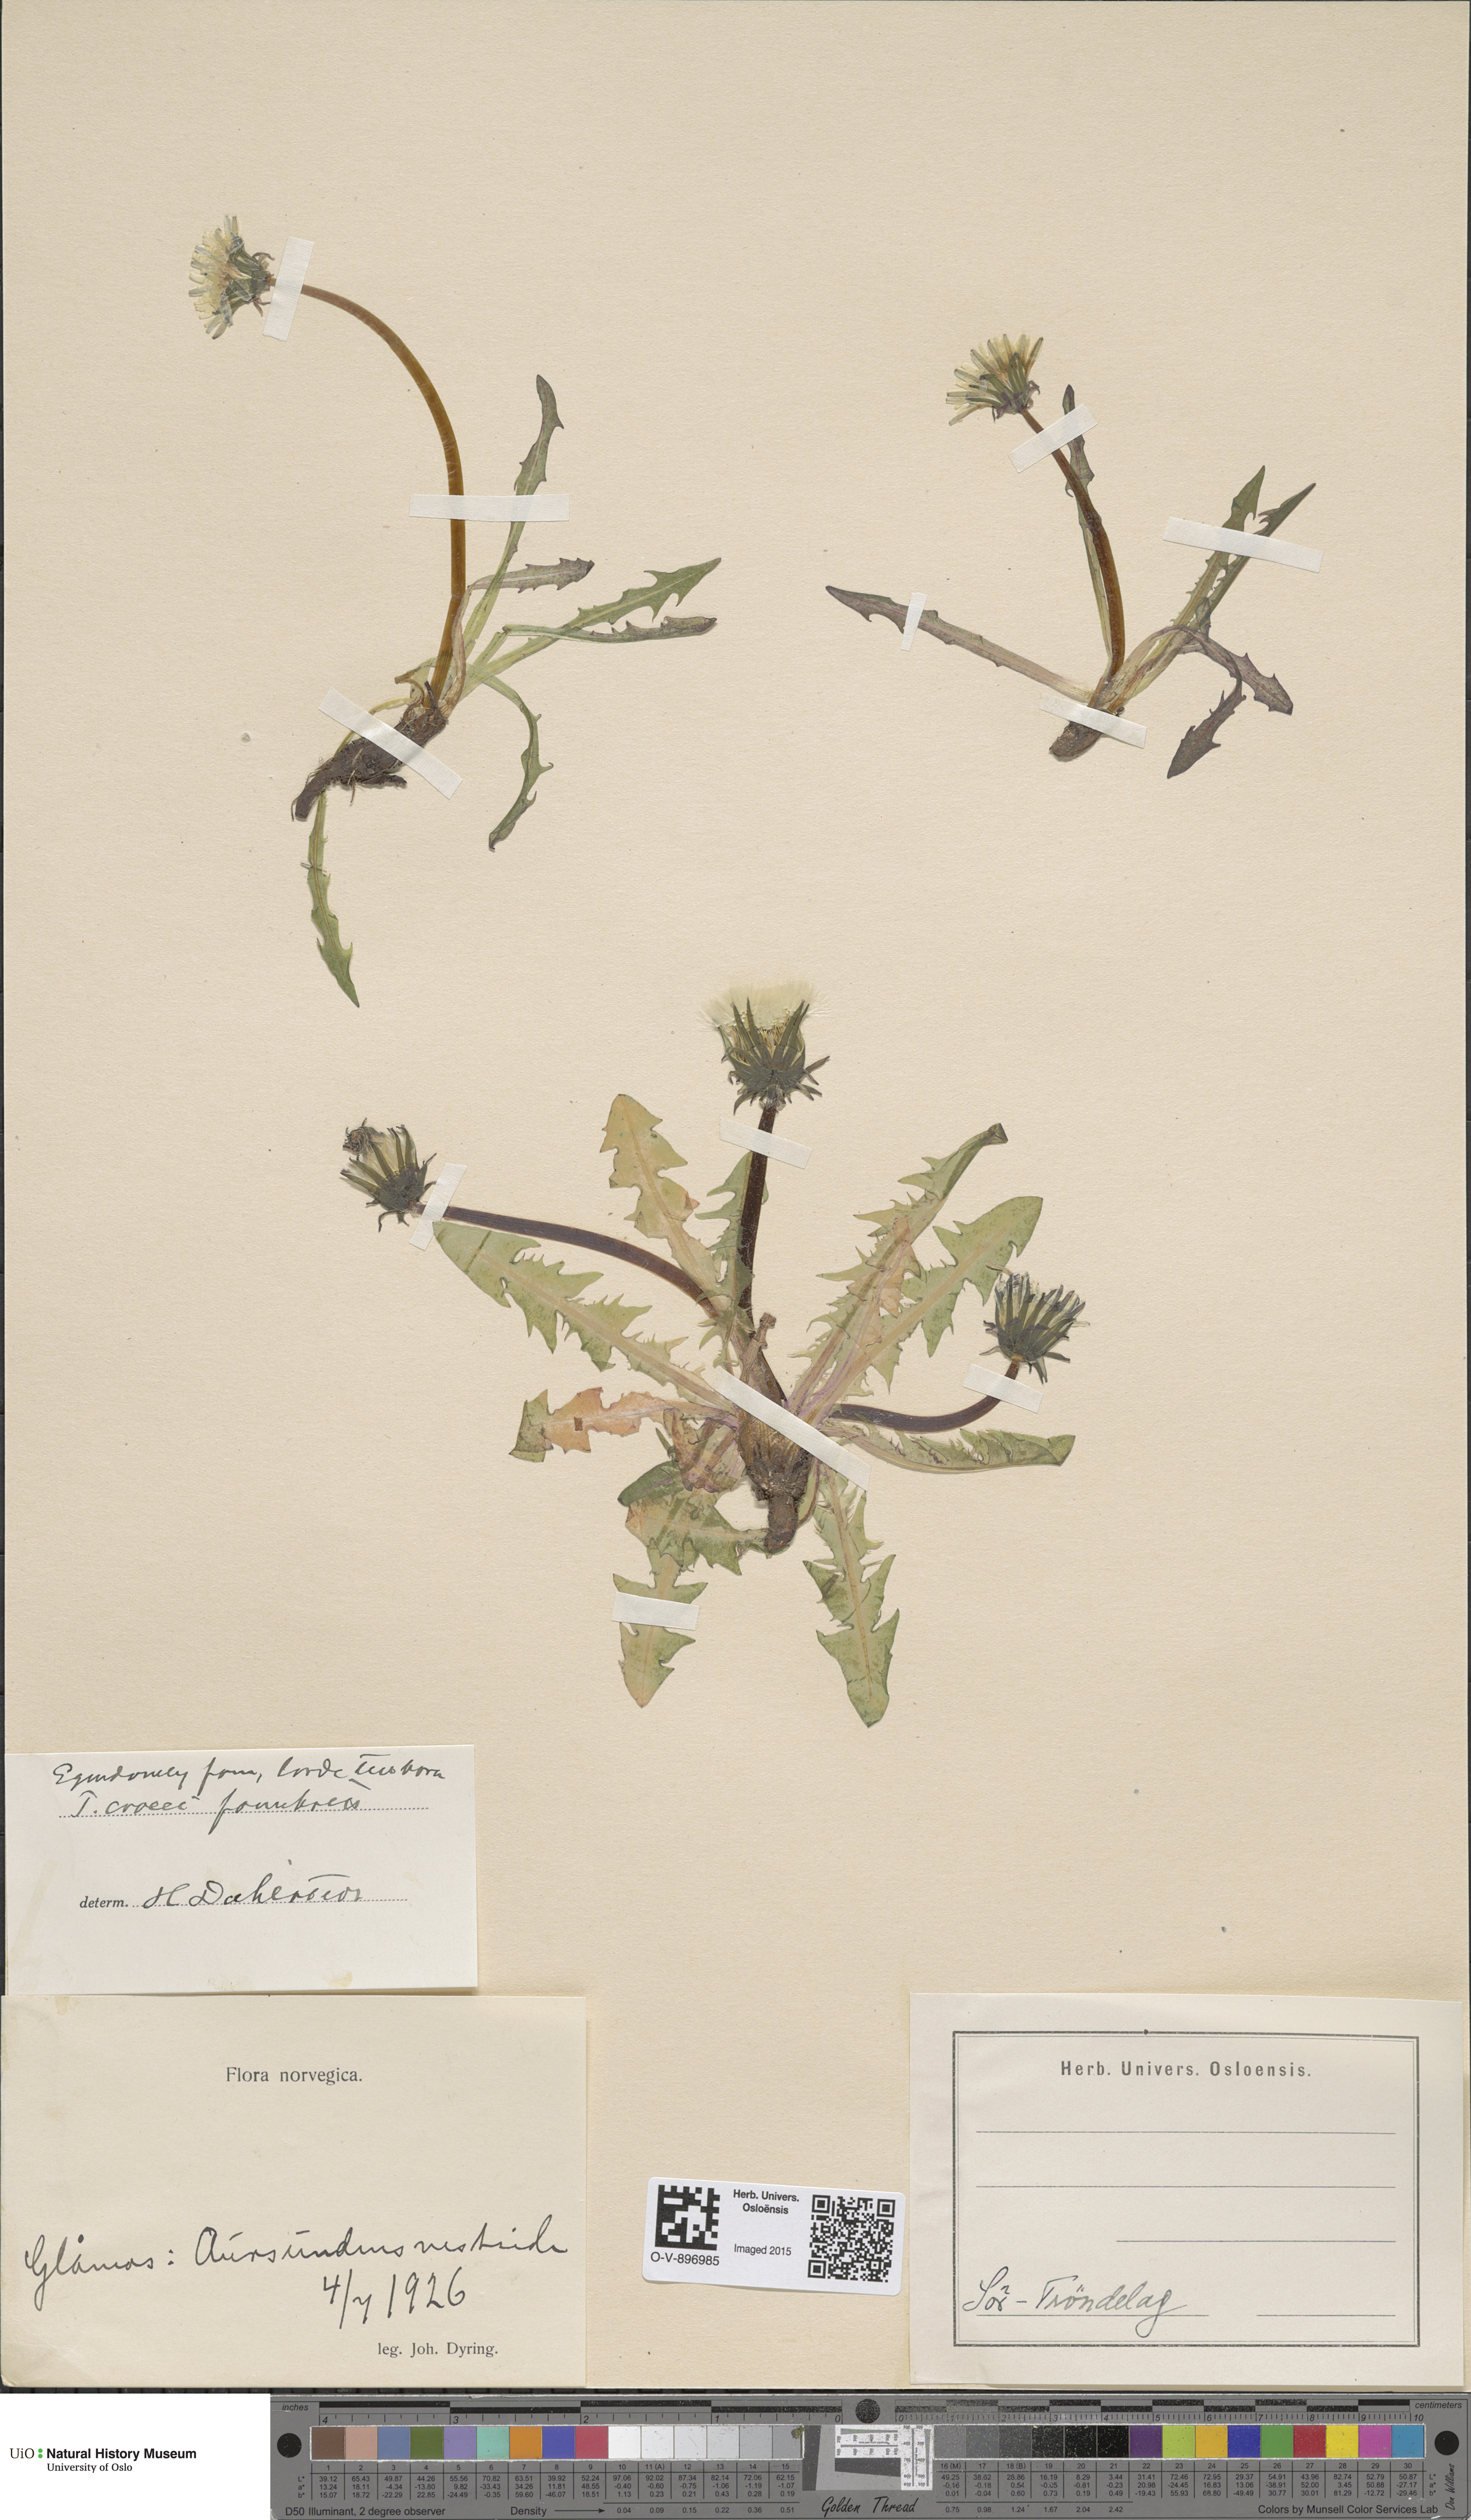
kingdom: Plantae
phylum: Tracheophyta
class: Magnoliopsida
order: Asterales
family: Asteraceae
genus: Taraxacum
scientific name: Taraxacum croceum
